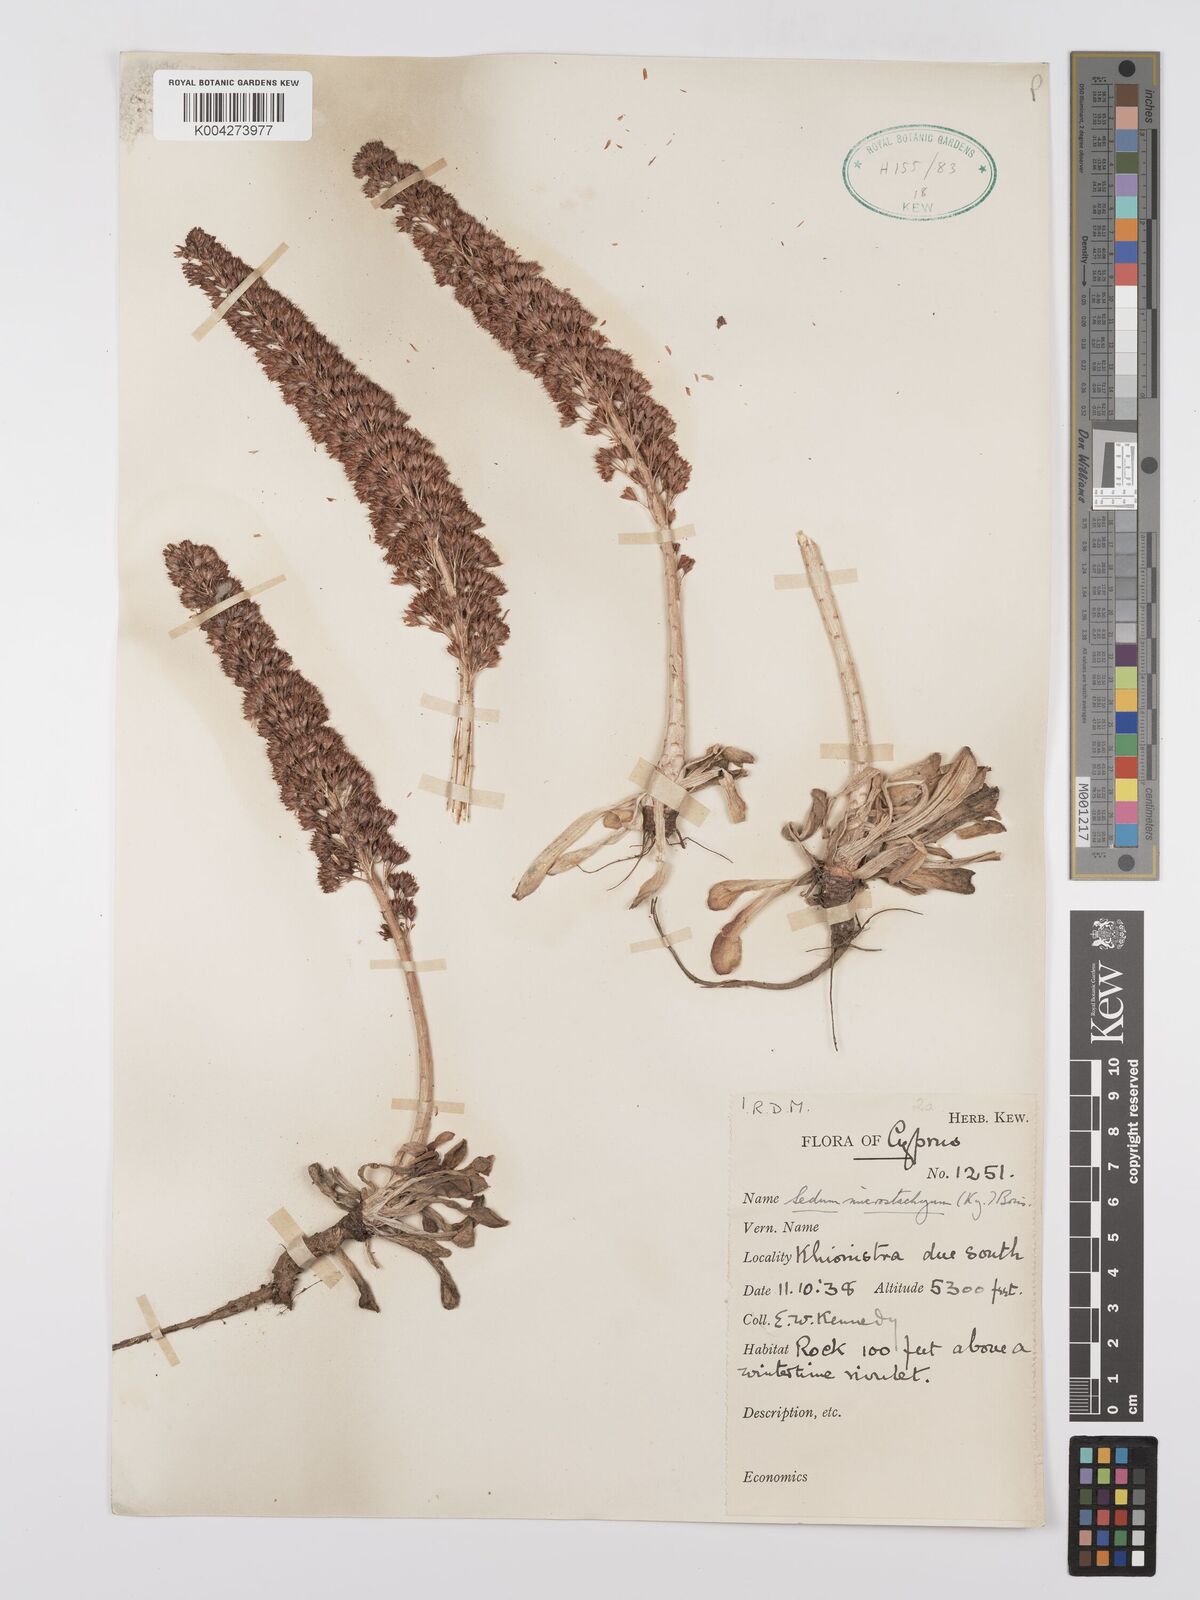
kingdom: Plantae
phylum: Tracheophyta
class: Magnoliopsida
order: Saxifragales
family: Crassulaceae
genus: Sedum
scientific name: Sedum microstachyum
